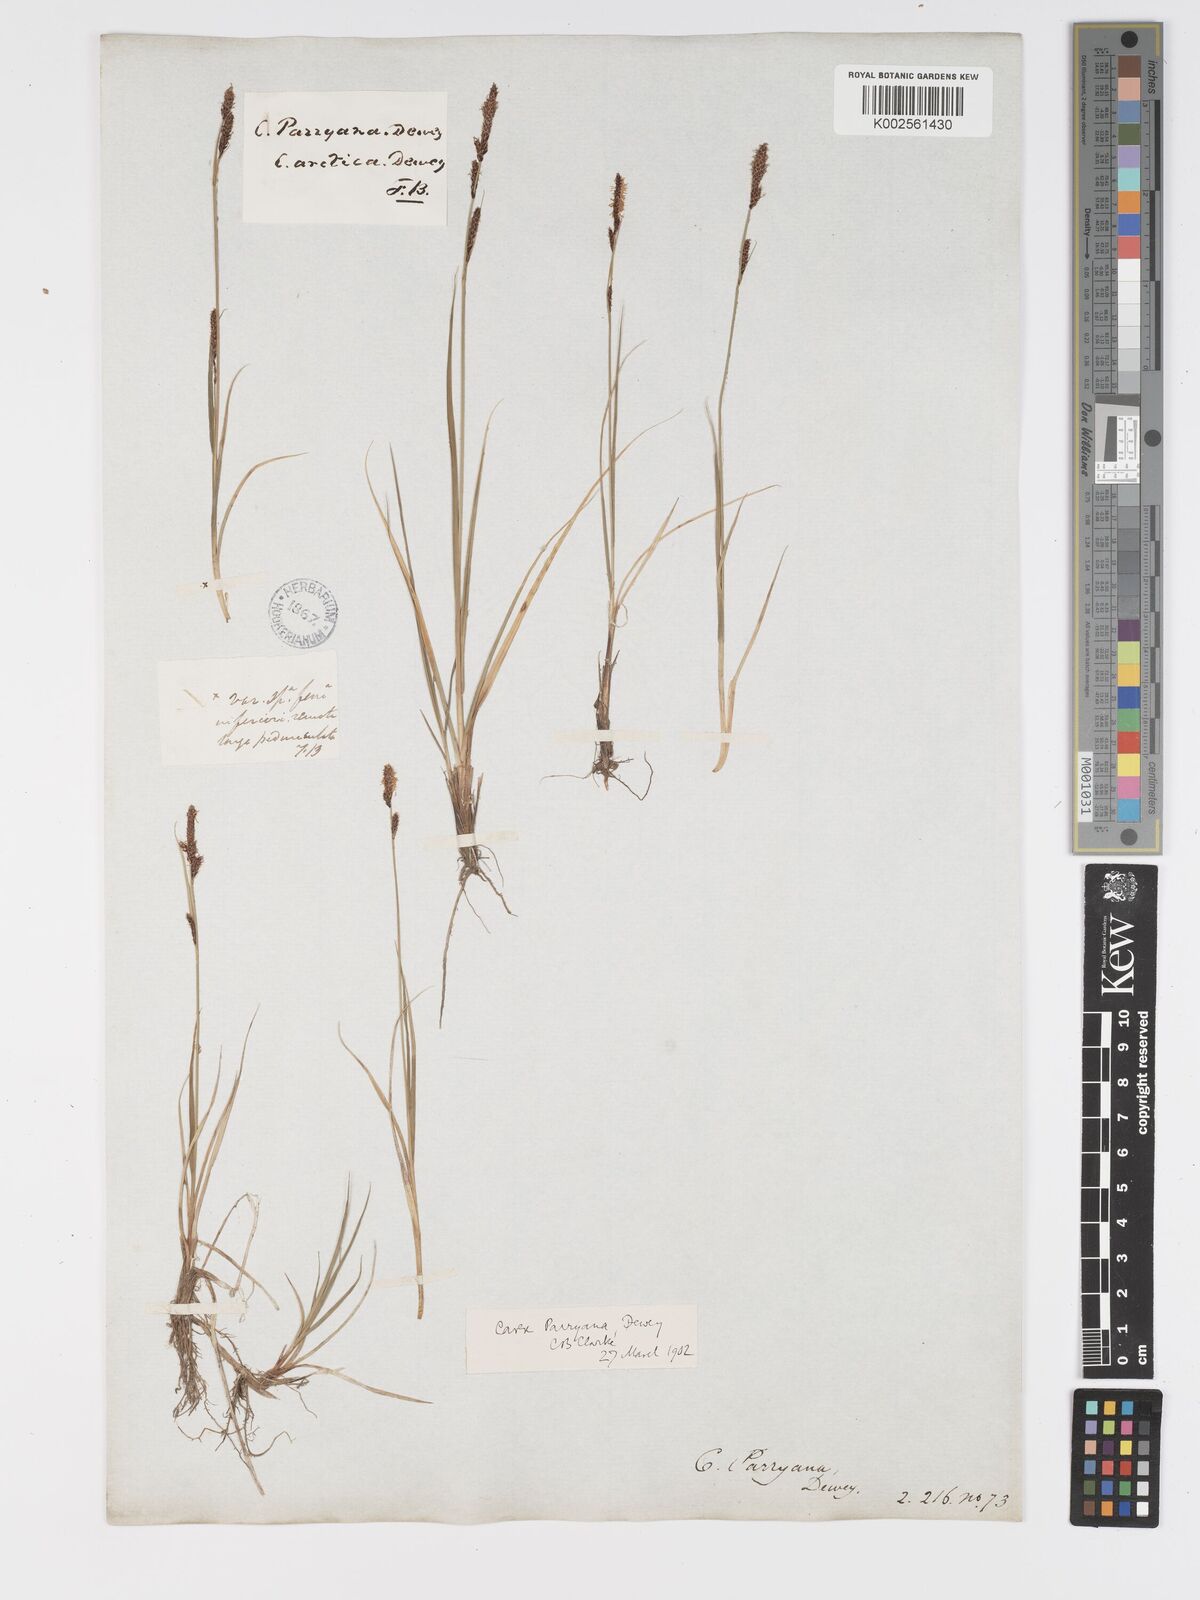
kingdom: Plantae
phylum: Tracheophyta
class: Liliopsida
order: Poales
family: Cyperaceae
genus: Carex
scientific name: Carex parryana
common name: Parry's sedge
